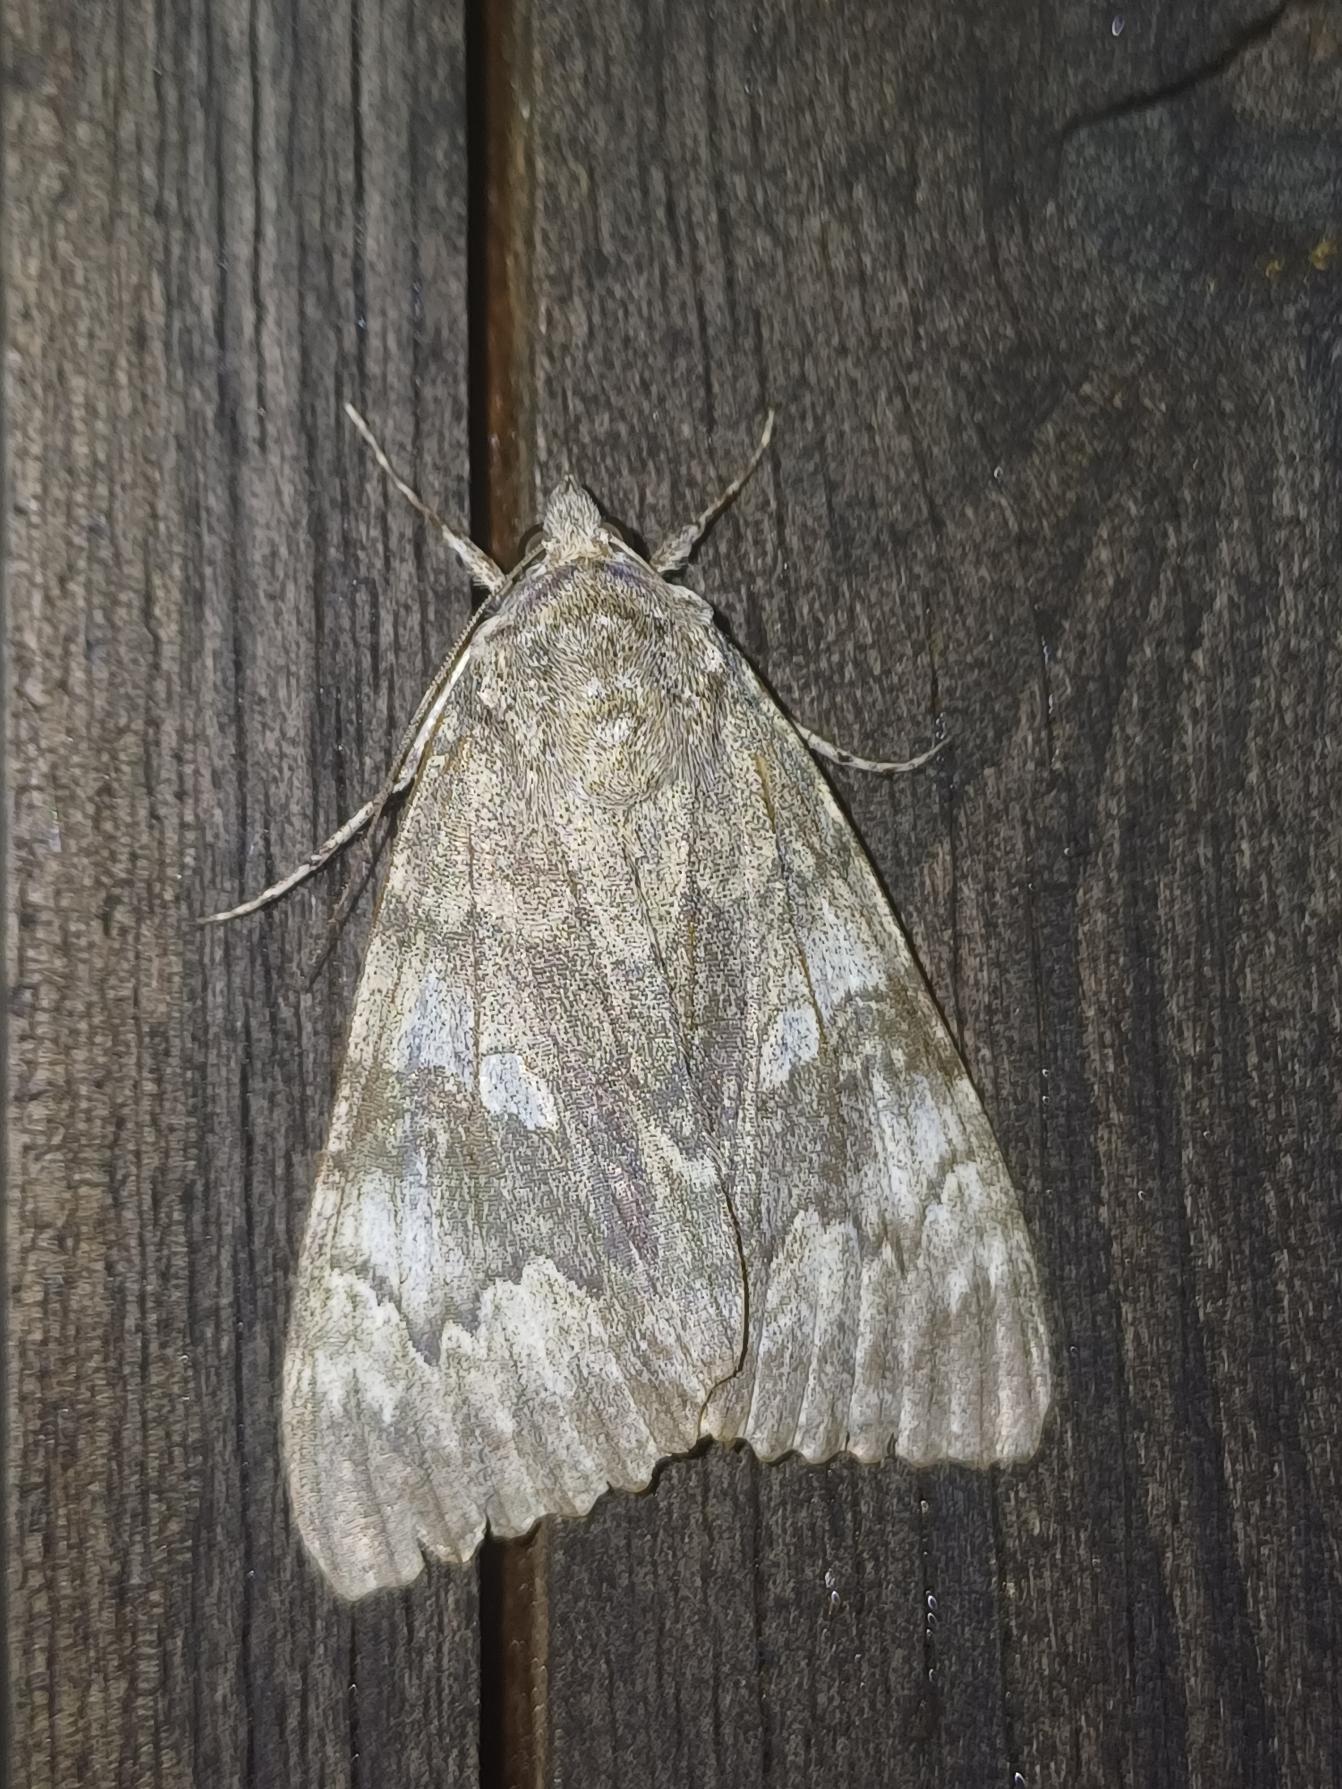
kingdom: Animalia
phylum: Arthropoda
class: Insecta
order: Lepidoptera
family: Erebidae
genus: Catocala
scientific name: Catocala nupta
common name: Rødt ordensbånd
